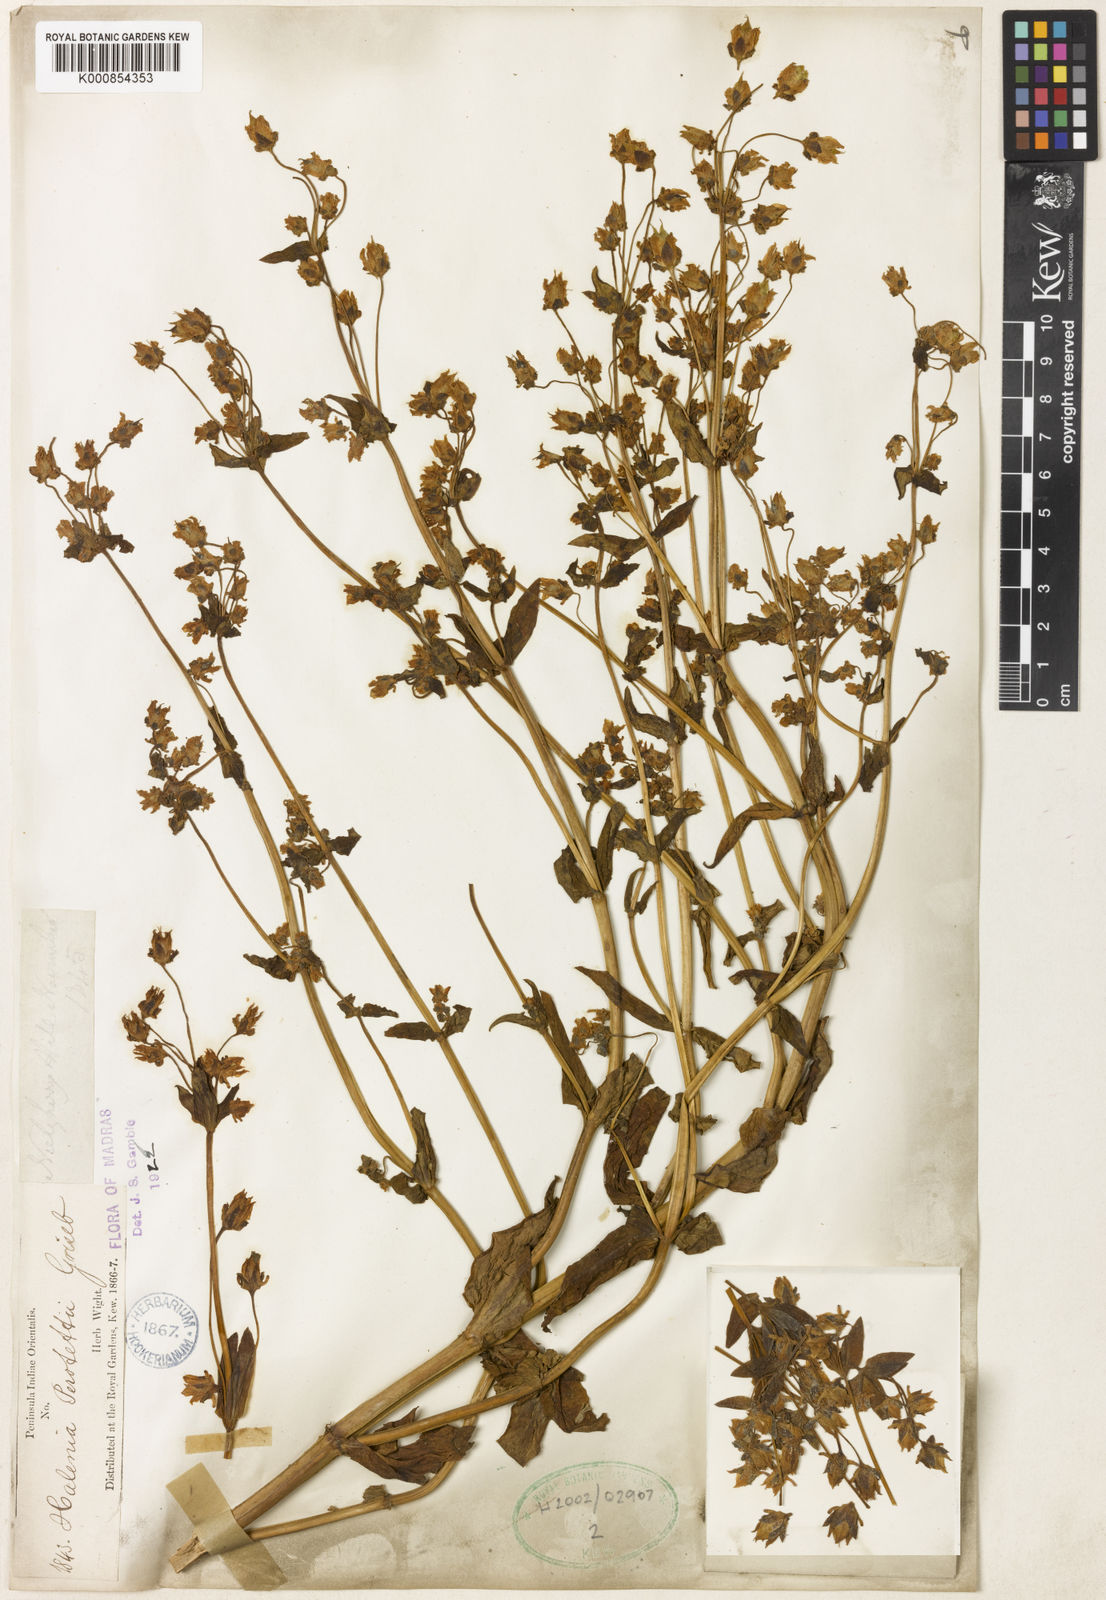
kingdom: Plantae
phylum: Tracheophyta
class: Magnoliopsida
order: Gentianales
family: Gentianaceae
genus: Halenia
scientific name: Halenia perrottetii
